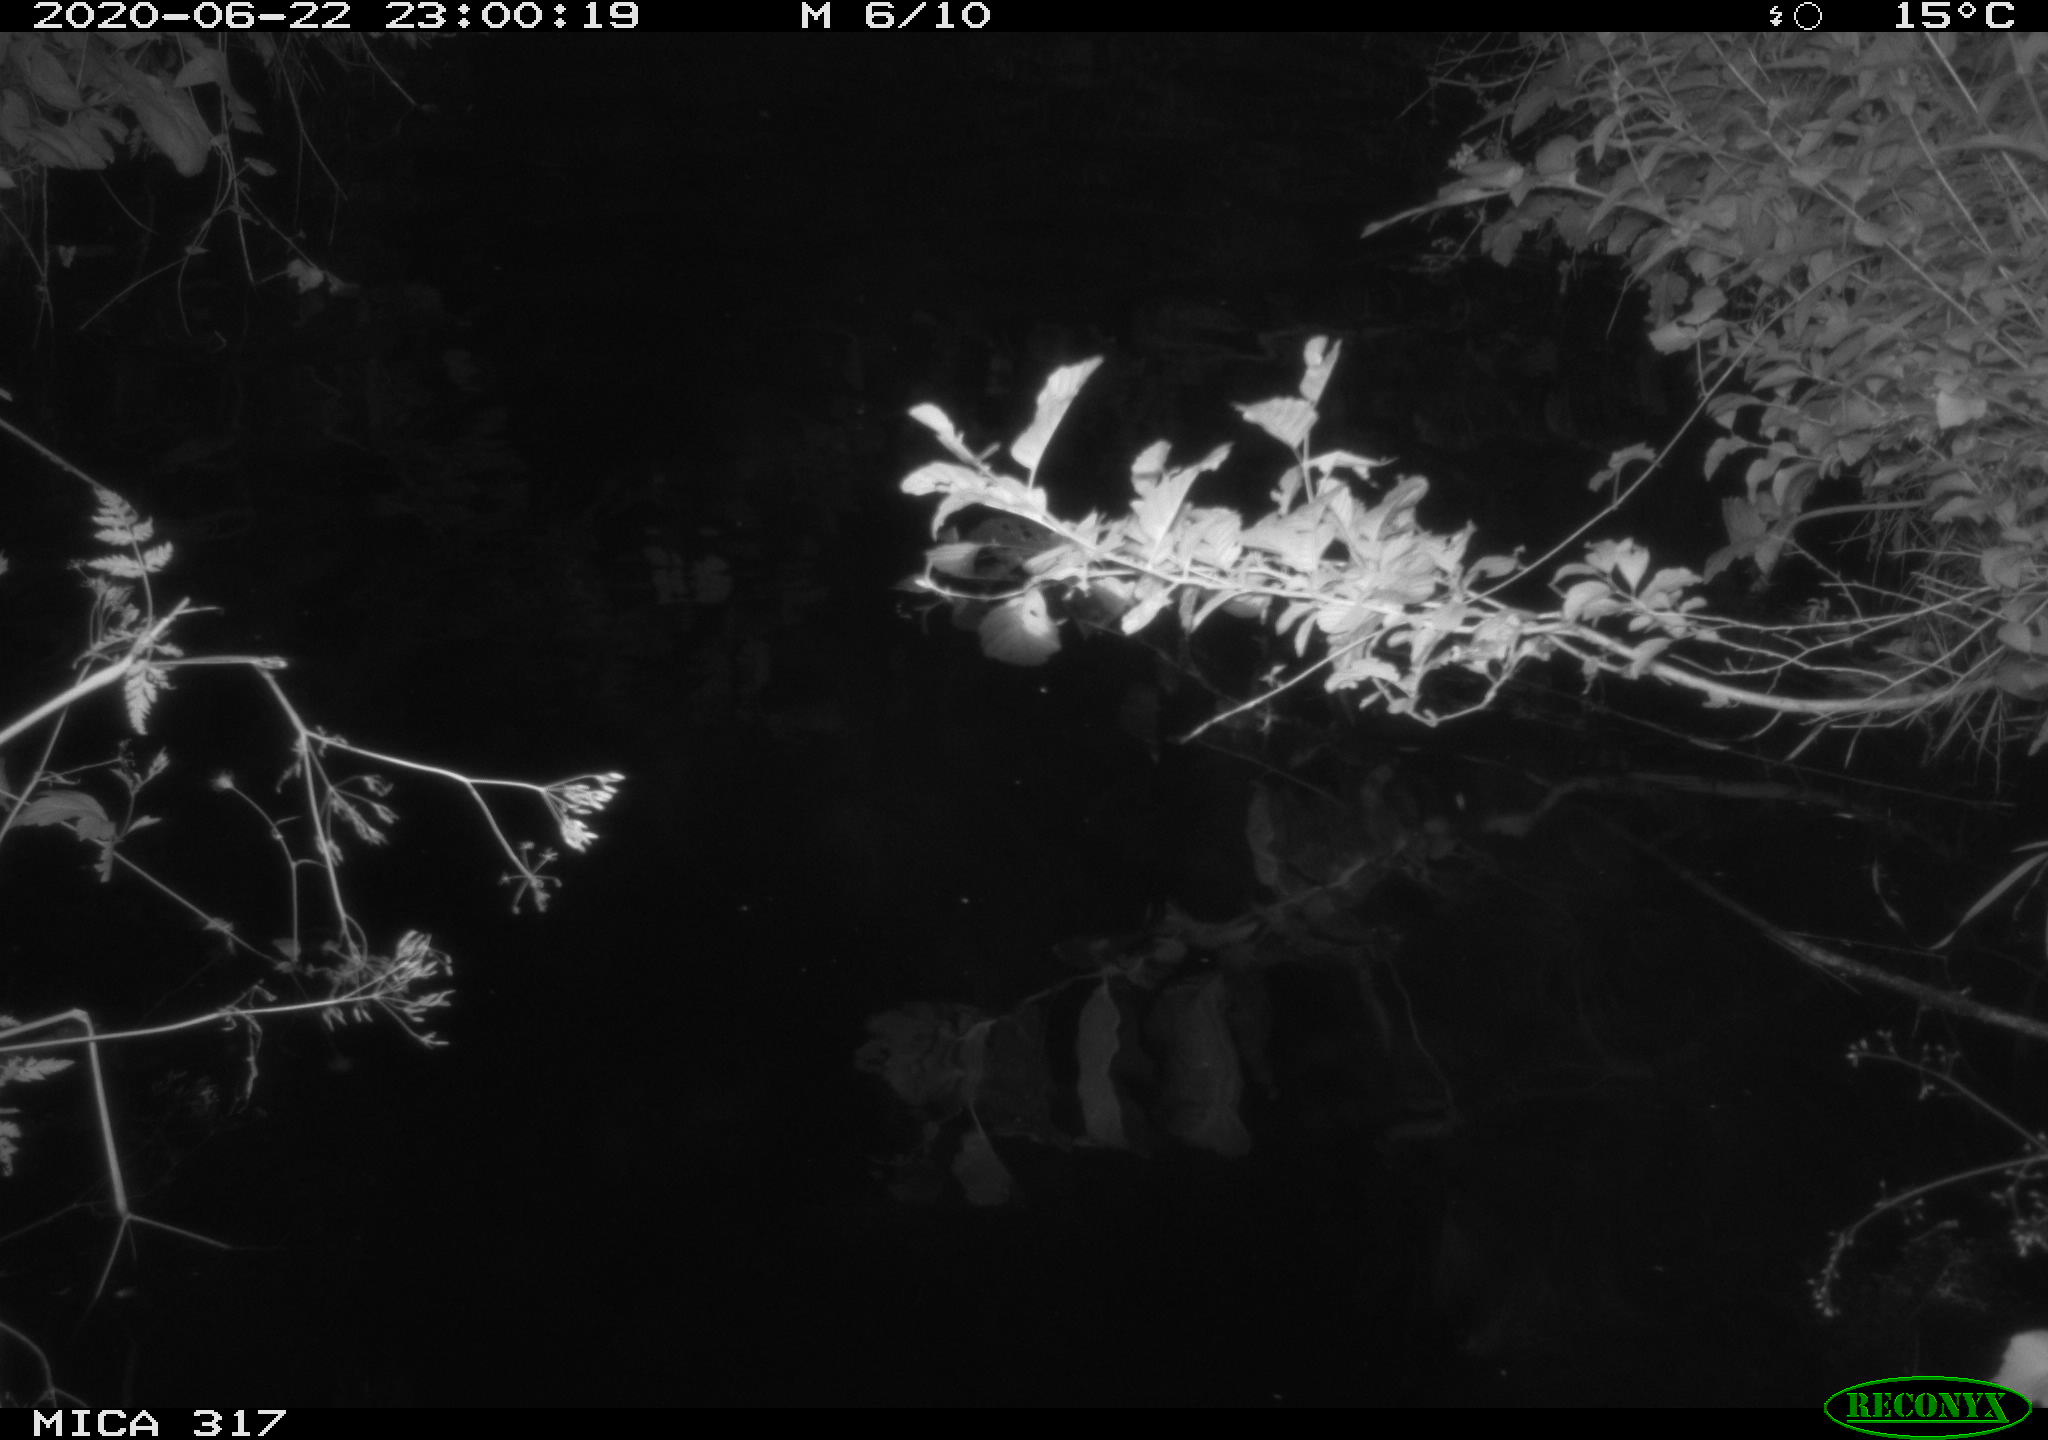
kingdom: Animalia
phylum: Chordata
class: Aves
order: Anseriformes
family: Anatidae
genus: Anas
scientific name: Anas platyrhynchos
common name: Mallard
